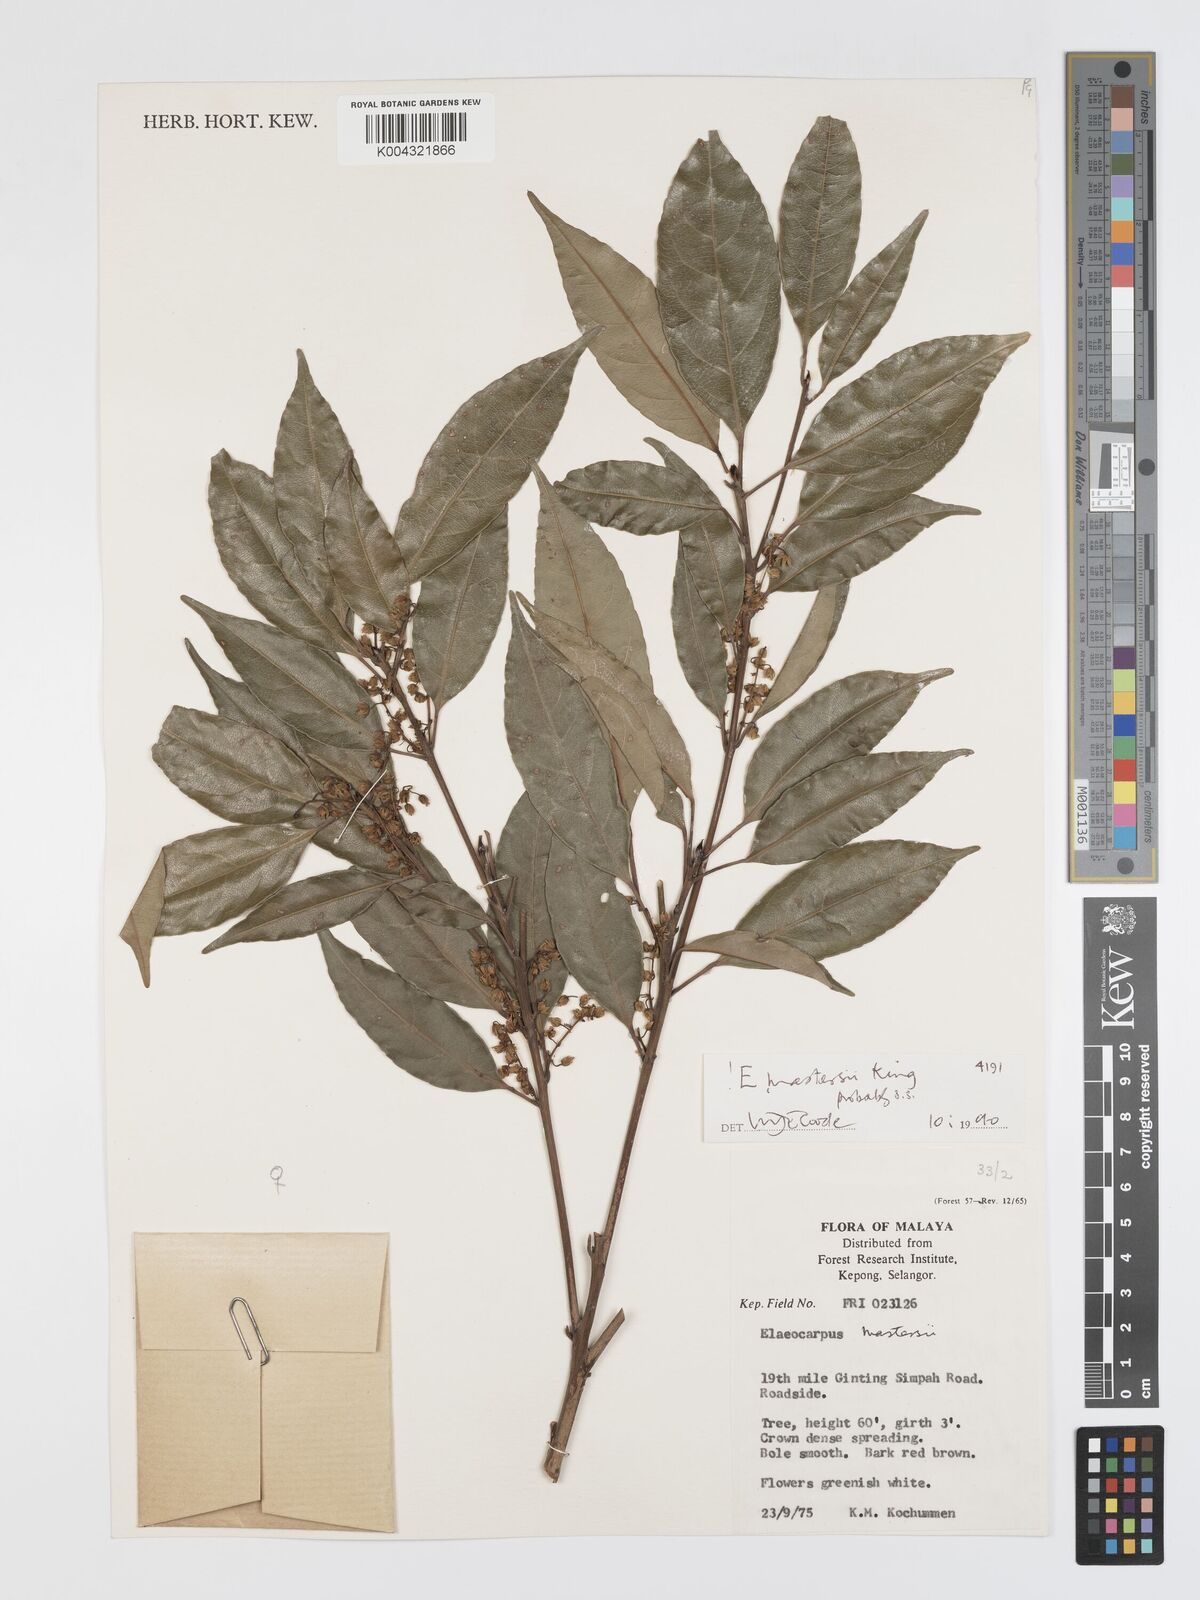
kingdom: Plantae
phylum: Tracheophyta
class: Magnoliopsida
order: Oxalidales
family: Elaeocarpaceae
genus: Elaeocarpus
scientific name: Elaeocarpus mastersii
